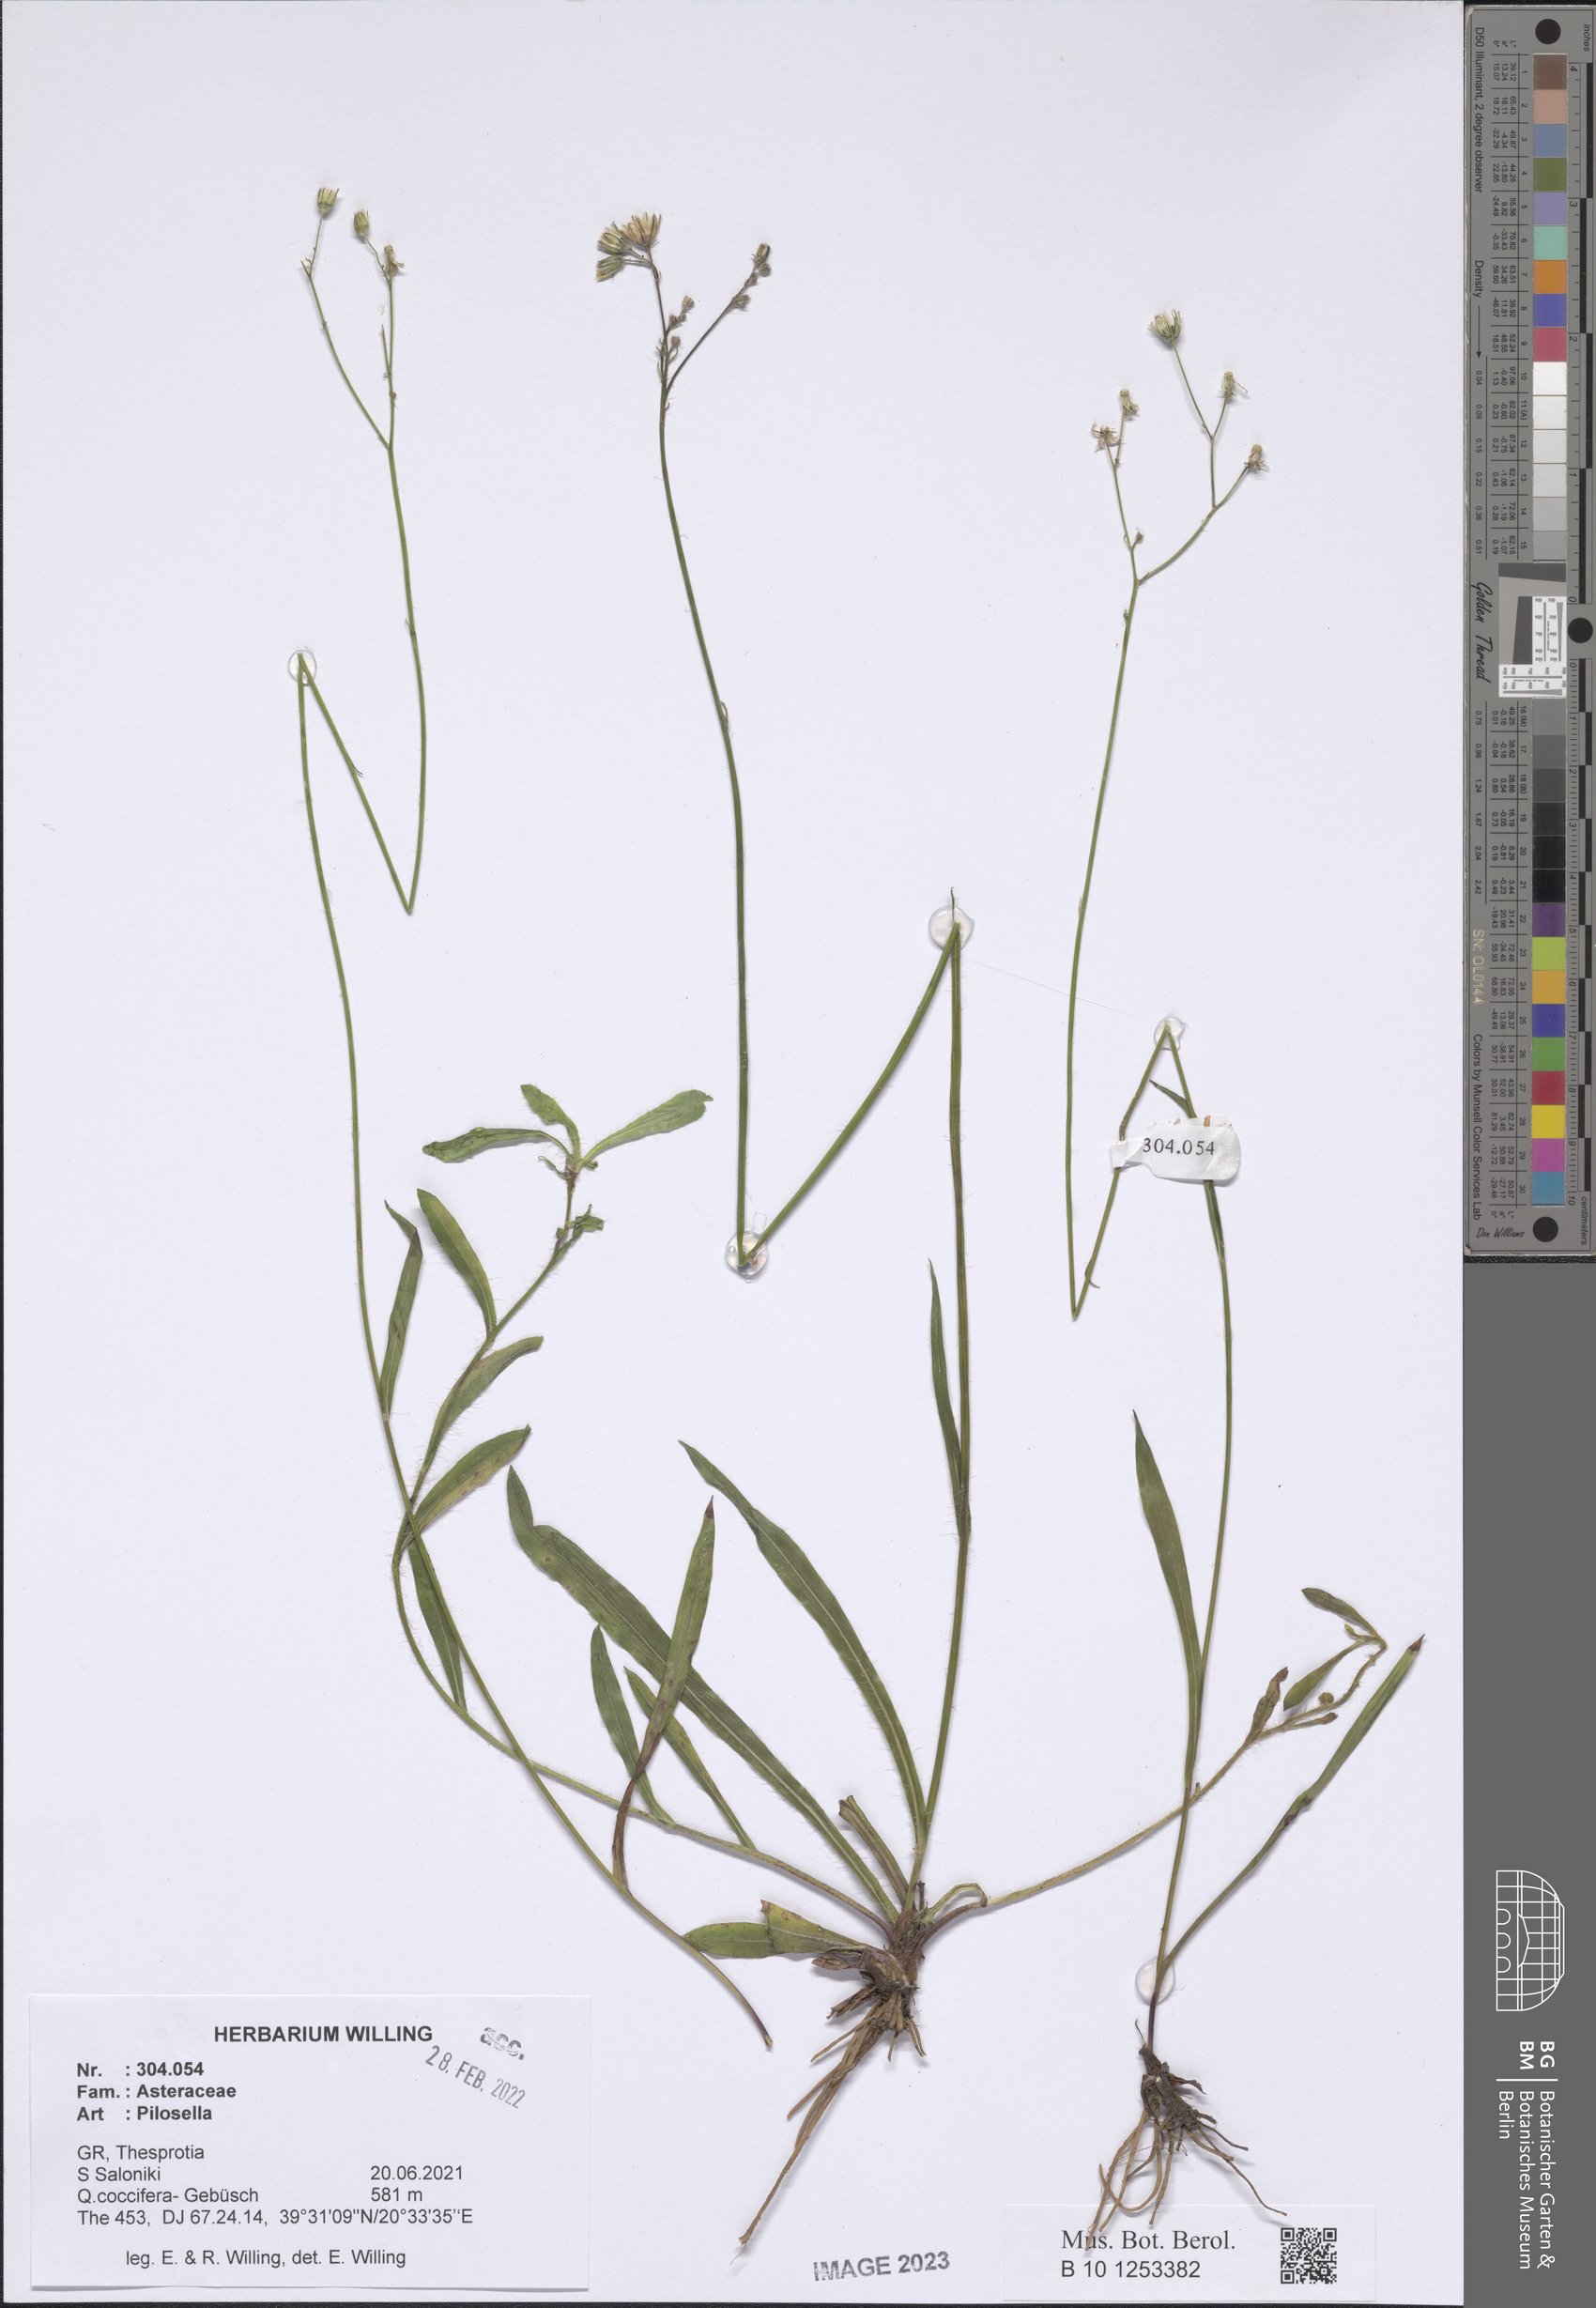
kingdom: Plantae
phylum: Tracheophyta
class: Magnoliopsida
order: Asterales
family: Asteraceae
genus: Pilosella
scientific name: Pilosella
